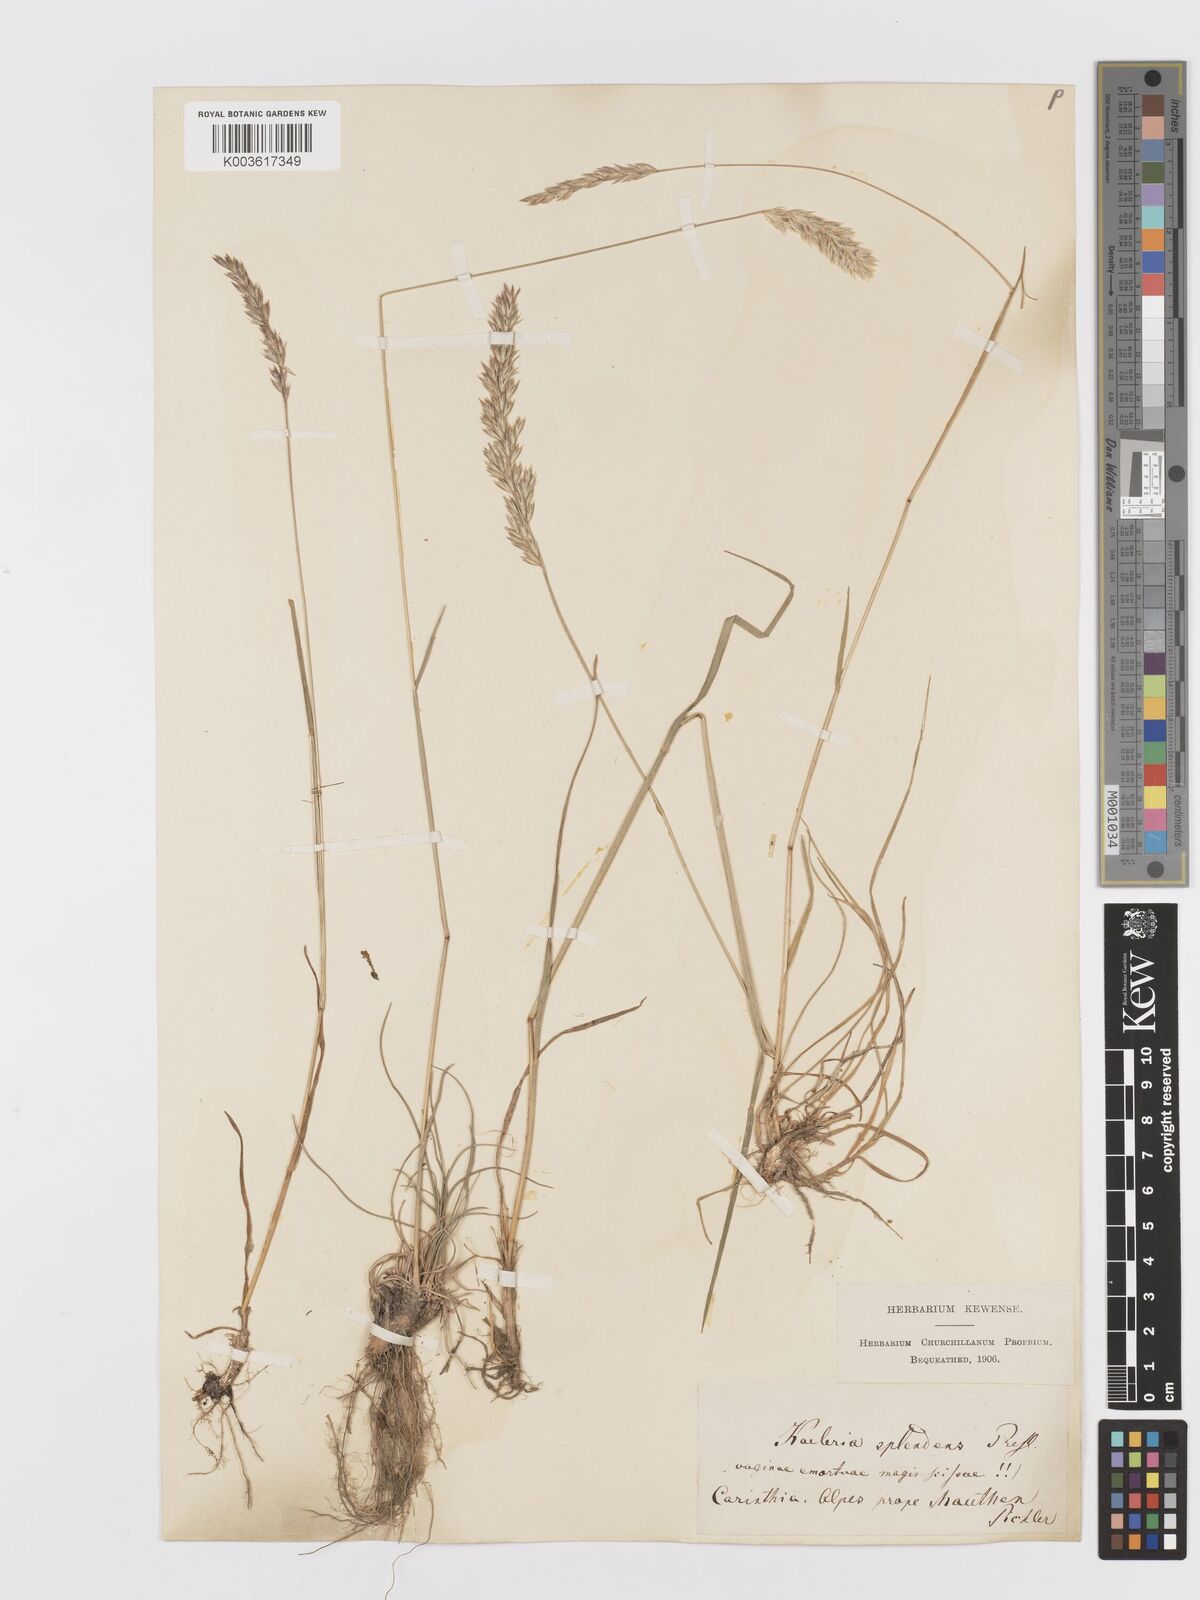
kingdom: Plantae
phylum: Tracheophyta
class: Liliopsida
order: Poales
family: Poaceae
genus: Koeleria
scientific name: Koeleria splendens
